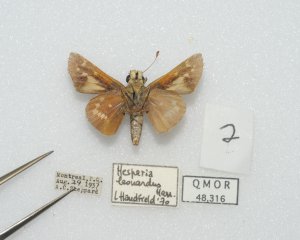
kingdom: Animalia
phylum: Arthropoda
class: Insecta
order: Lepidoptera
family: Hesperiidae
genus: Hesperia
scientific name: Hesperia leonardus
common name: Leonard's Skipper
